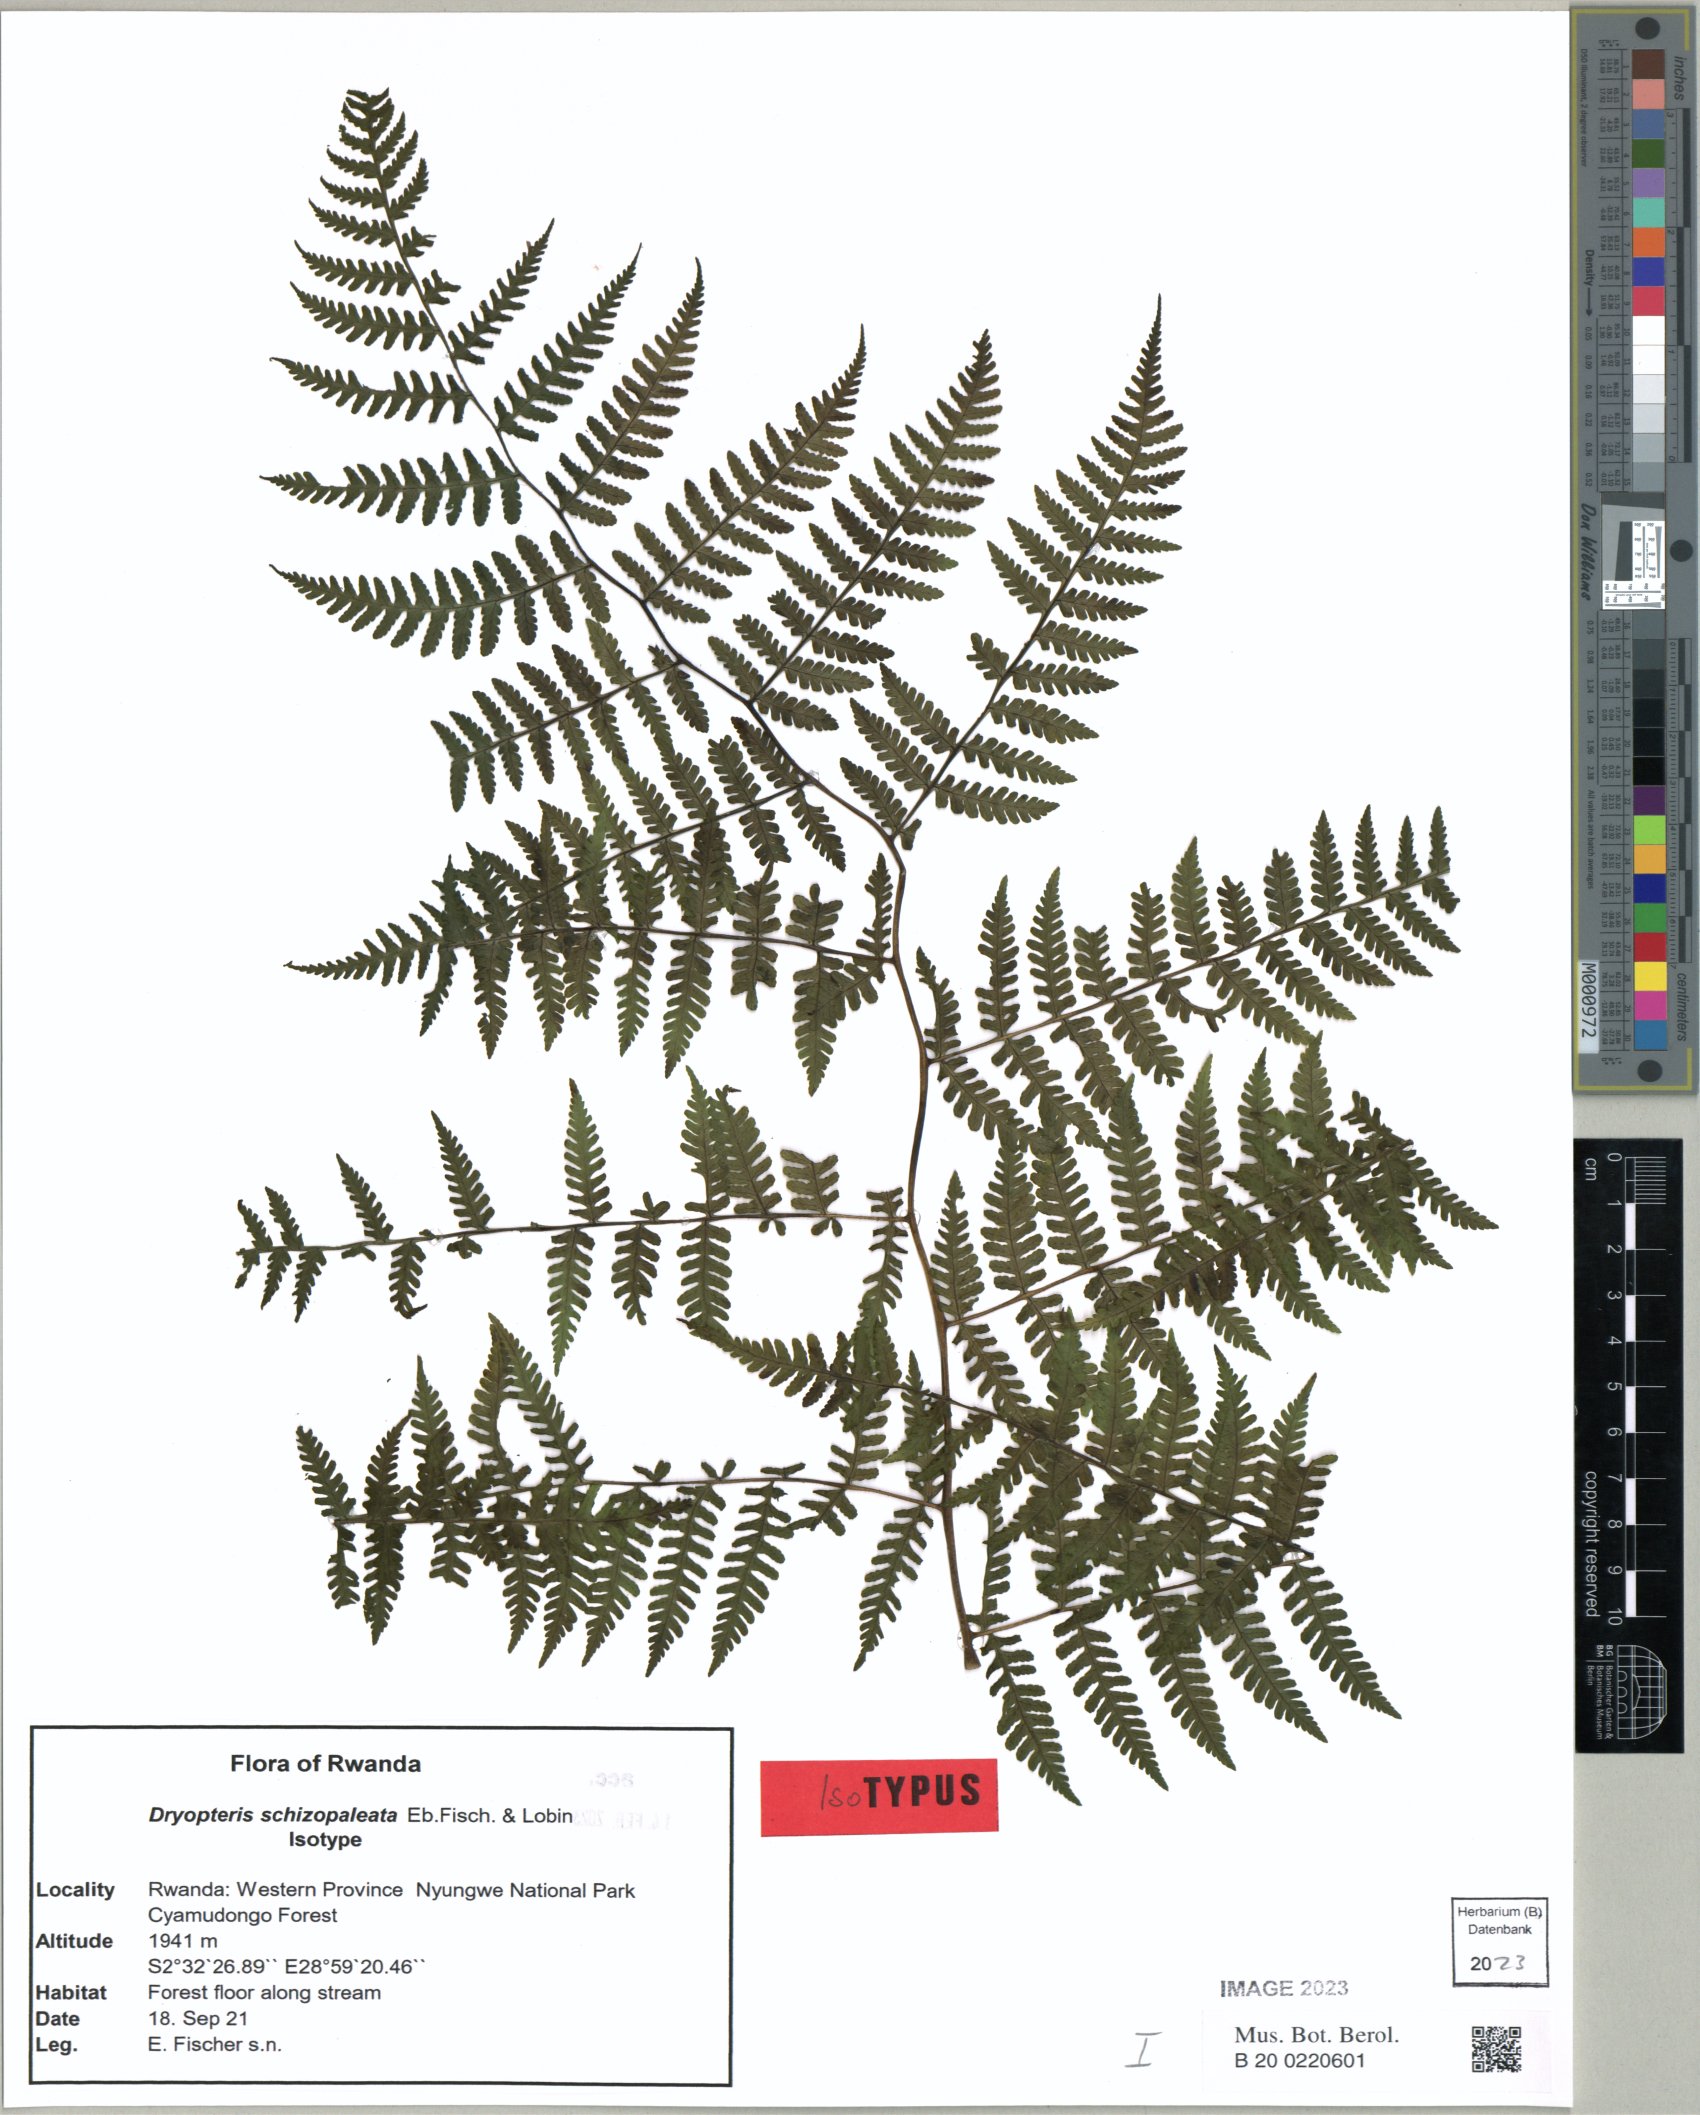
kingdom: Plantae
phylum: Tracheophyta
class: Polypodiopsida
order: Polypodiales
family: Dryopteridaceae
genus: Dryopteris
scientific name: Dryopteris schizopaleata
